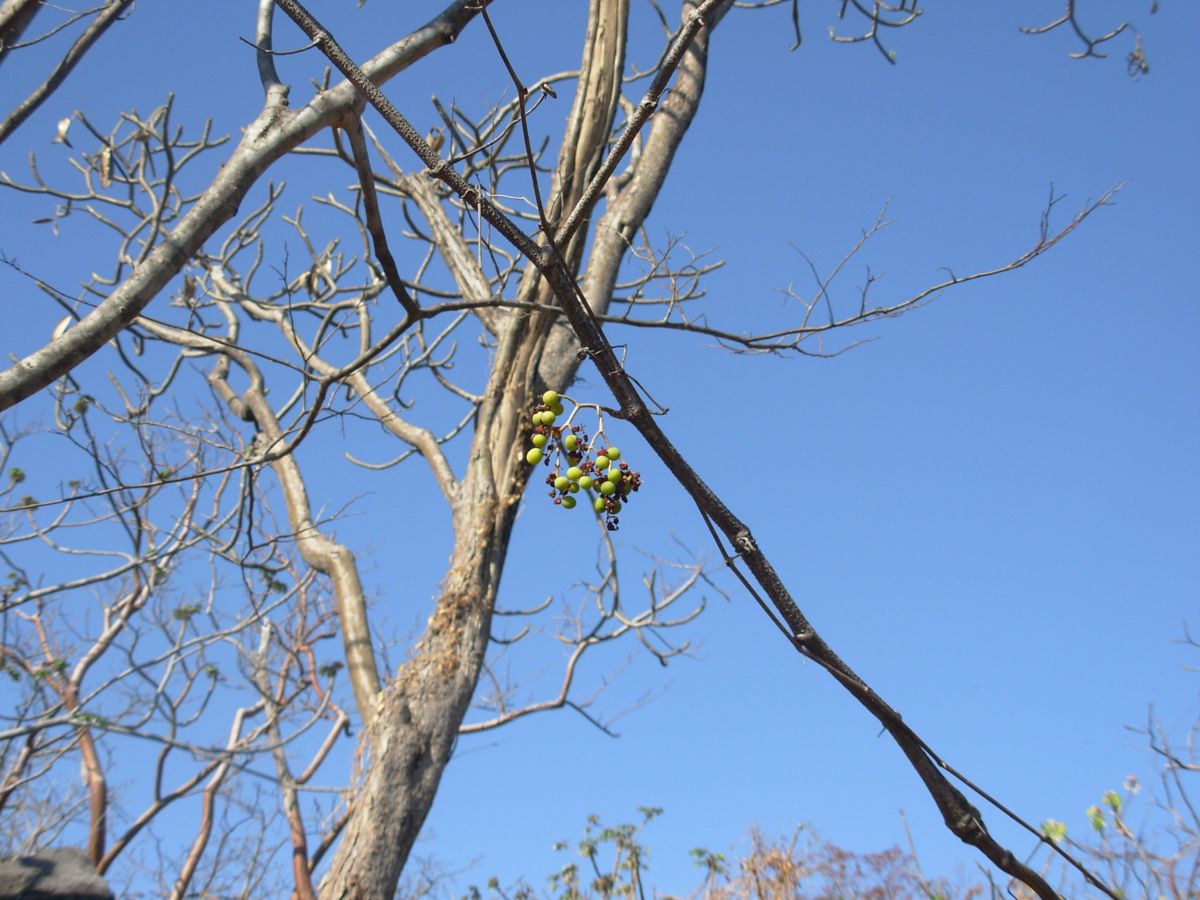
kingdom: Plantae
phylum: Tracheophyta
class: Magnoliopsida
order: Vitales
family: Vitaceae
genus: Vitis
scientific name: Vitis tiliifolia
